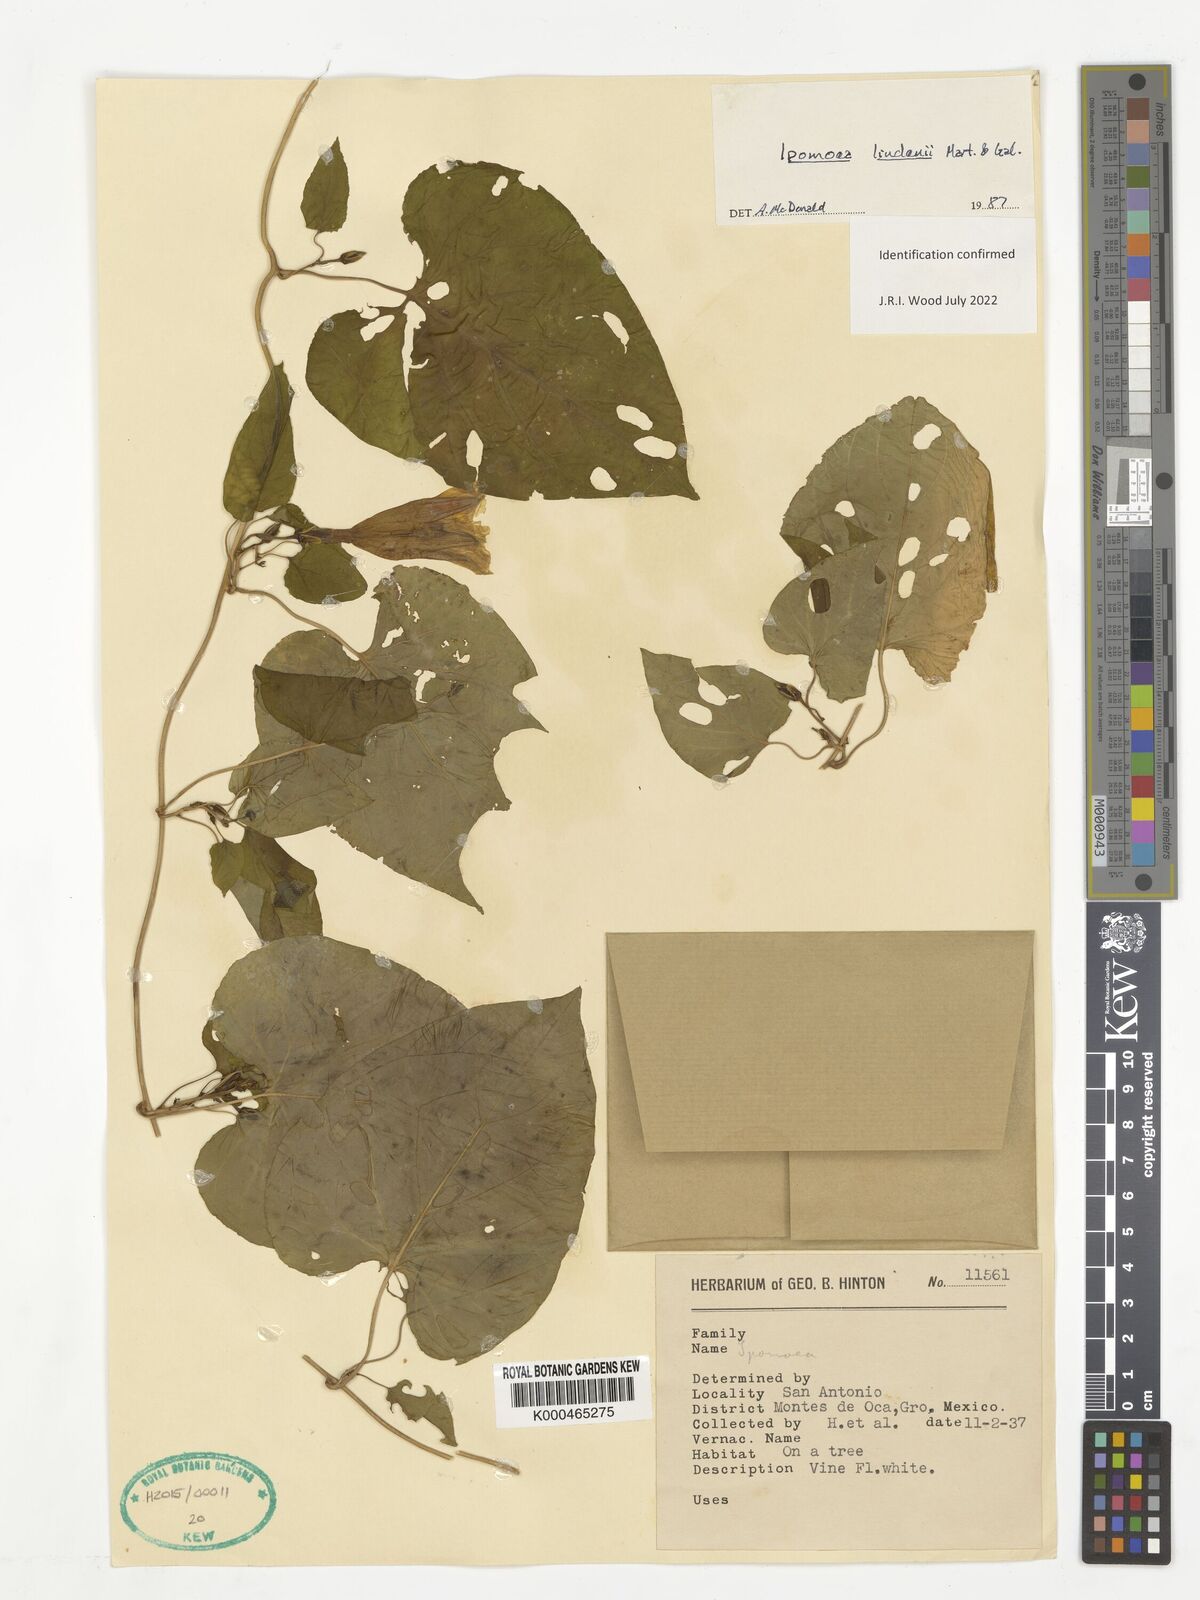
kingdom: Plantae
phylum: Tracheophyta
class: Magnoliopsida
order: Solanales
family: Convolvulaceae
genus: Ipomoea
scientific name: Ipomoea lindenii
